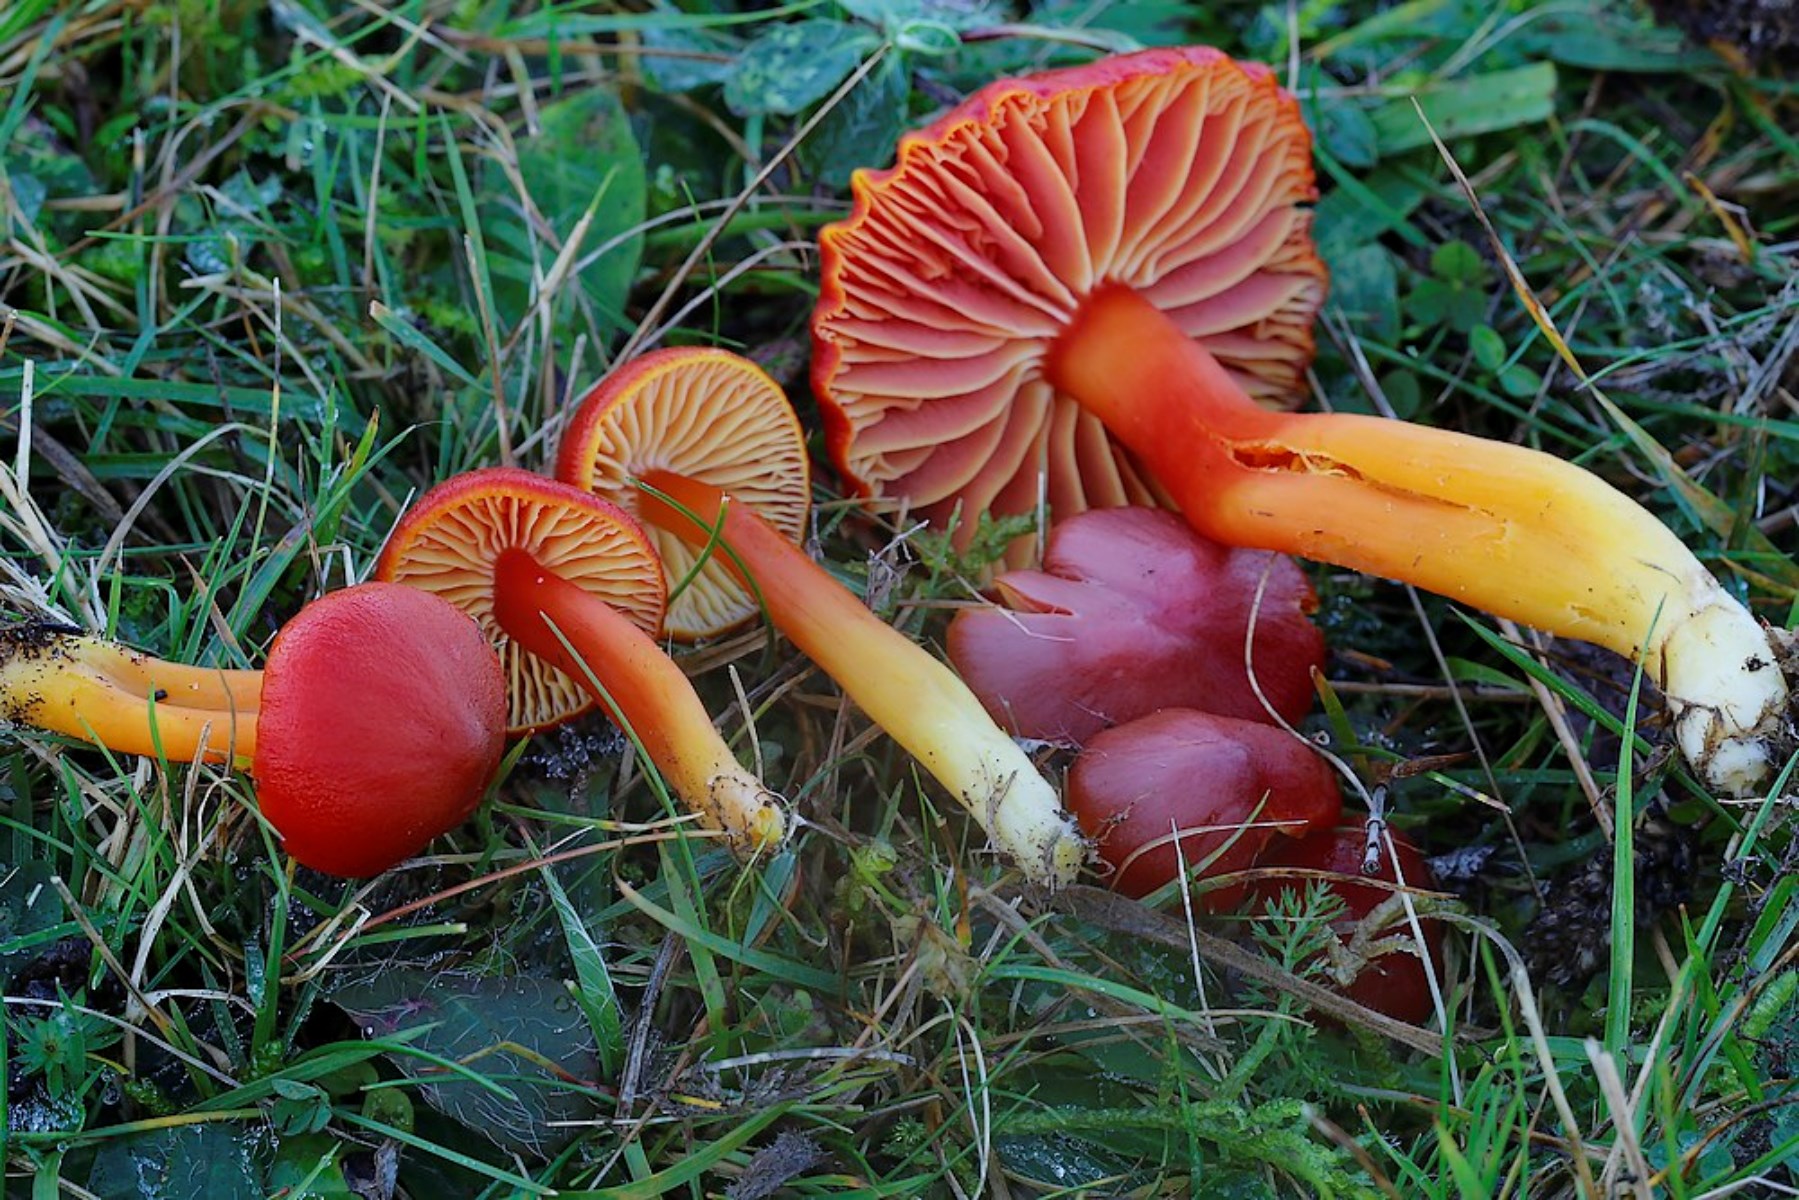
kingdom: Fungi
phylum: Basidiomycota
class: Agaricomycetes
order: Agaricales
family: Hygrophoraceae
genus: Hygrocybe
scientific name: Hygrocybe coccinea
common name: cinnober-vokshat
